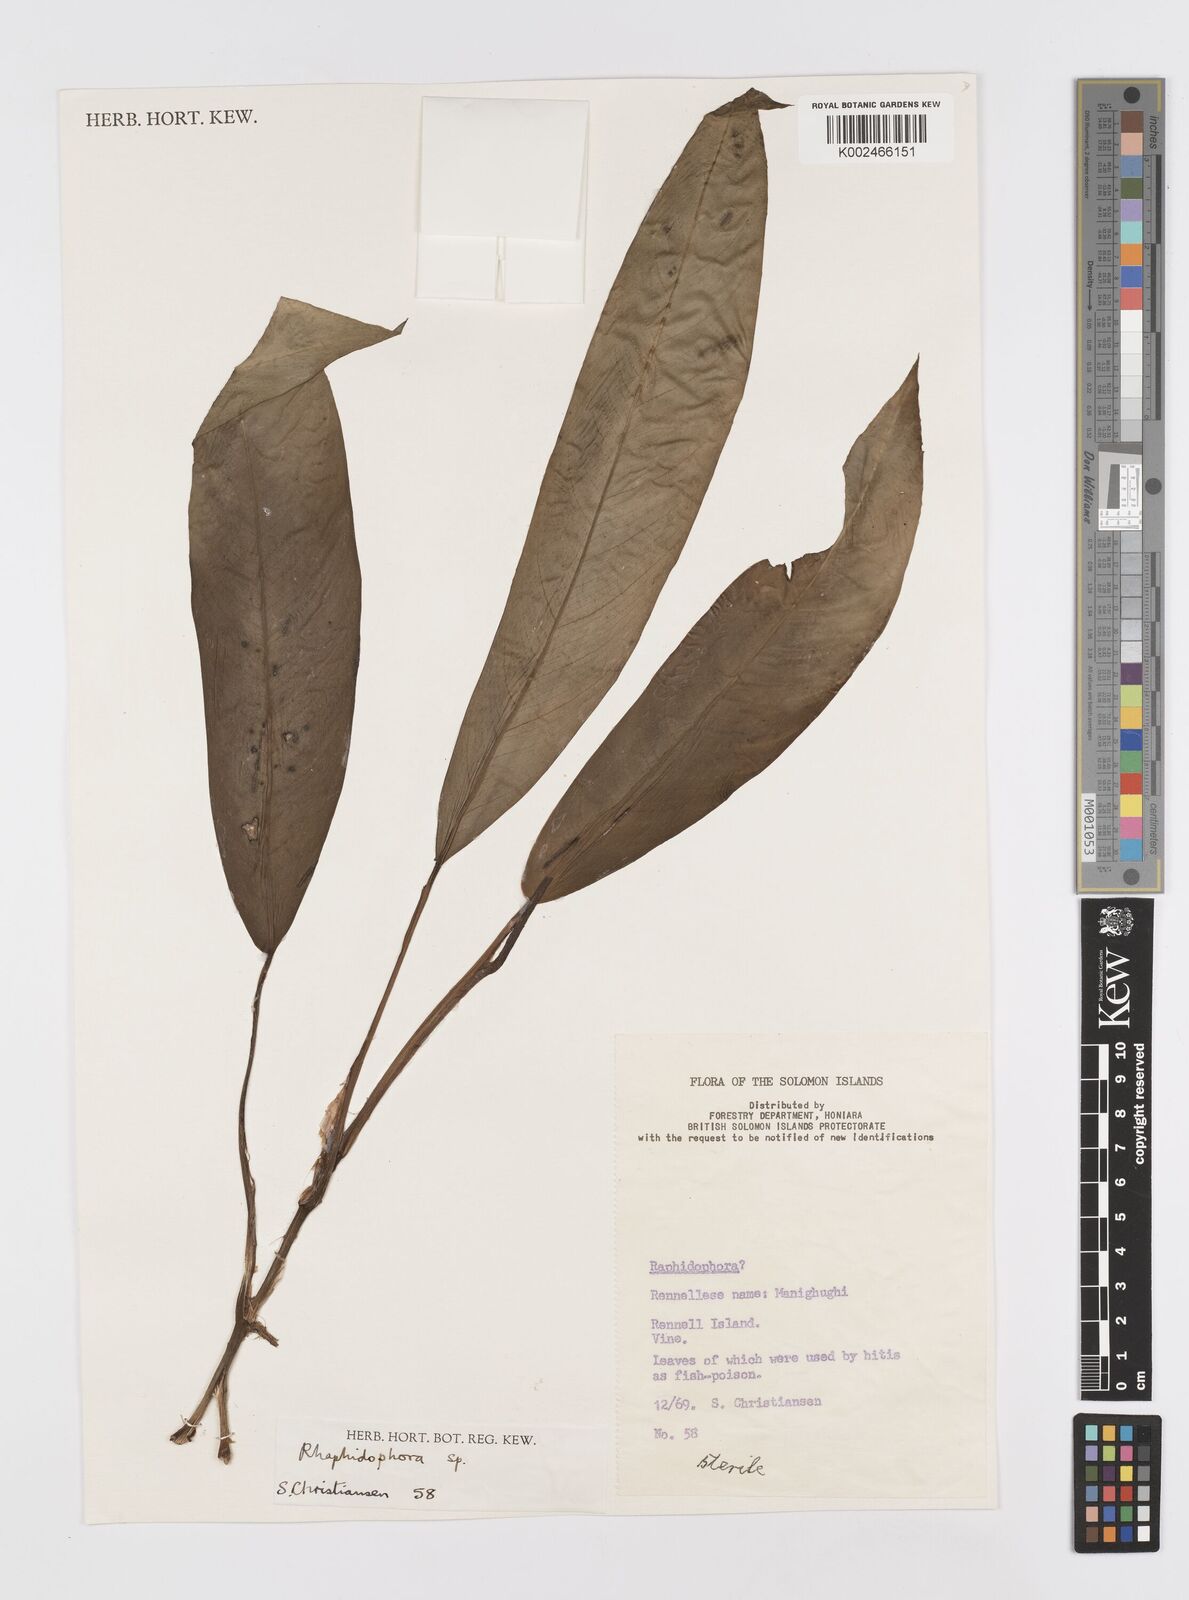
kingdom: Plantae
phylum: Tracheophyta
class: Liliopsida
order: Alismatales
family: Araceae
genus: Rhaphidophora
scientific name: Rhaphidophora mima
